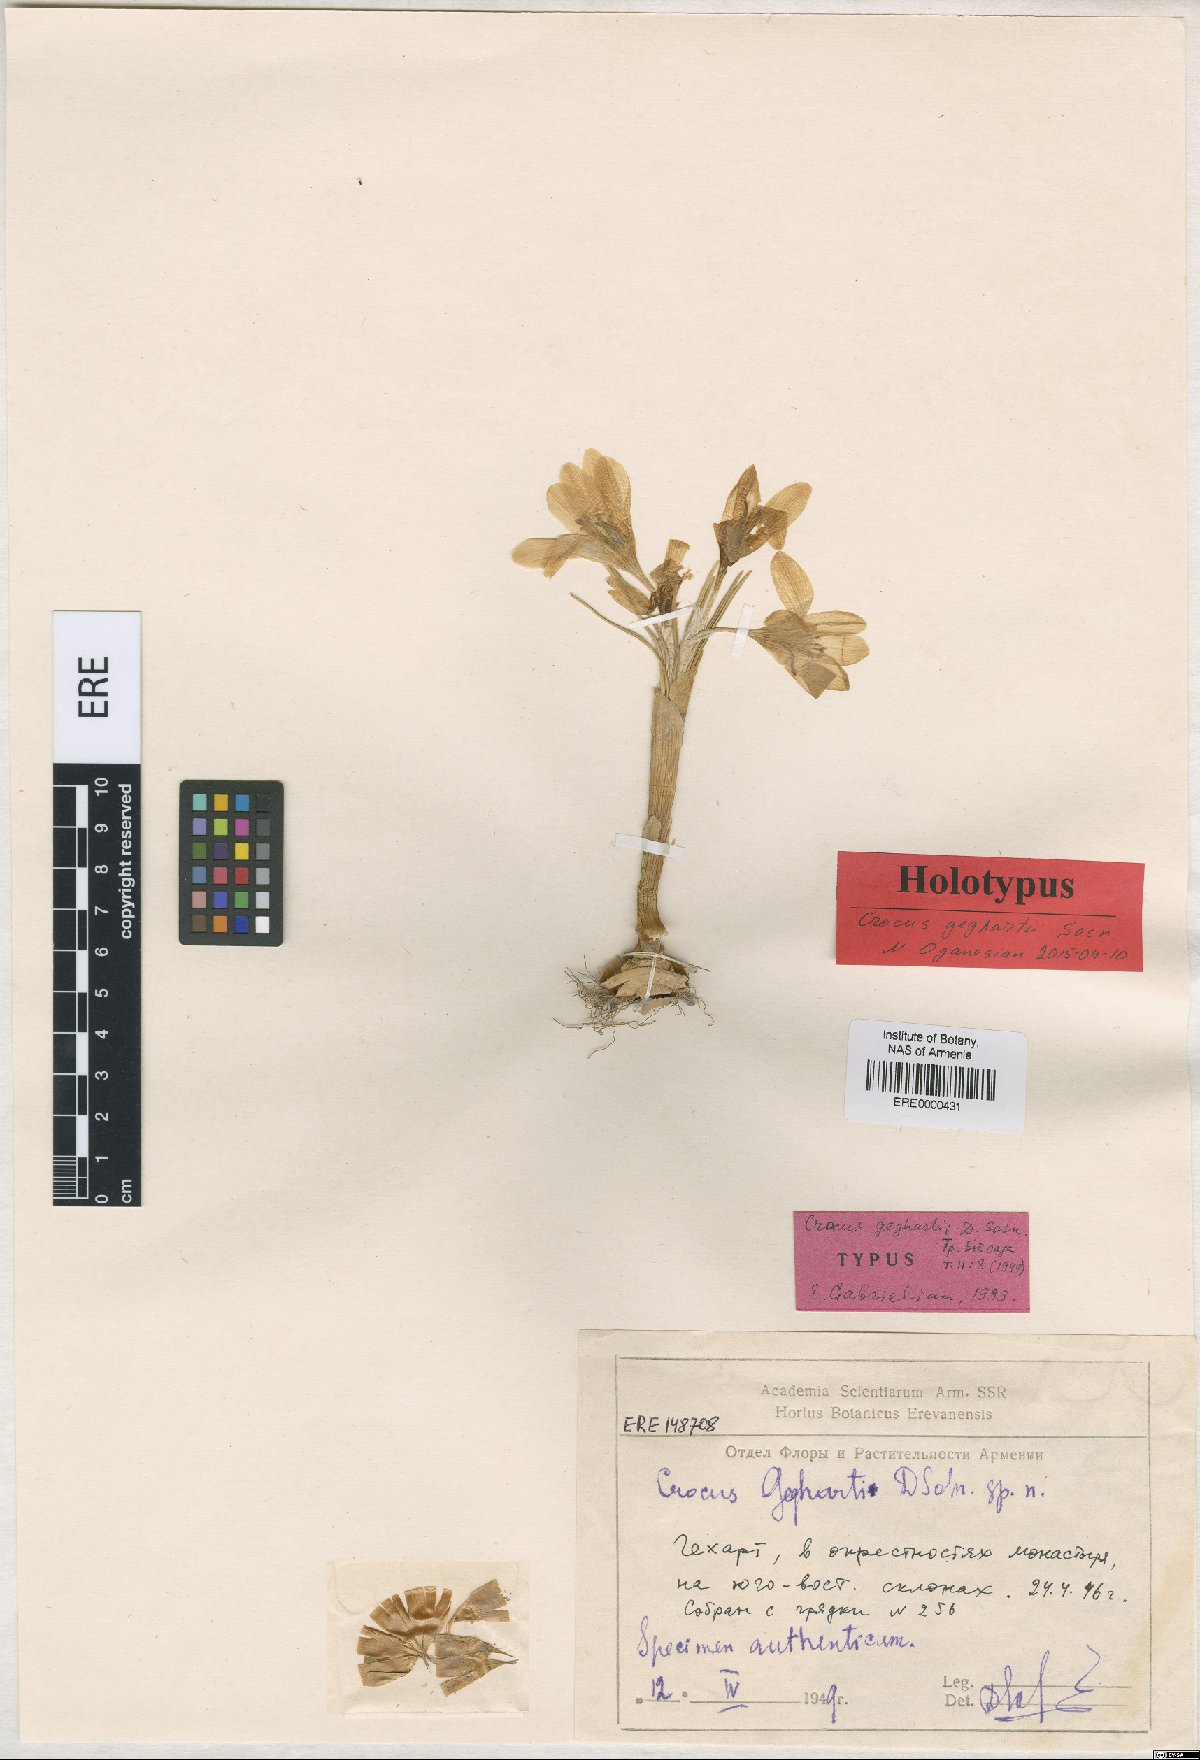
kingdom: Plantae
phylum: Tracheophyta
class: Liliopsida
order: Asparagales
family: Iridaceae
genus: Crocus
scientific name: Crocus geghartii
